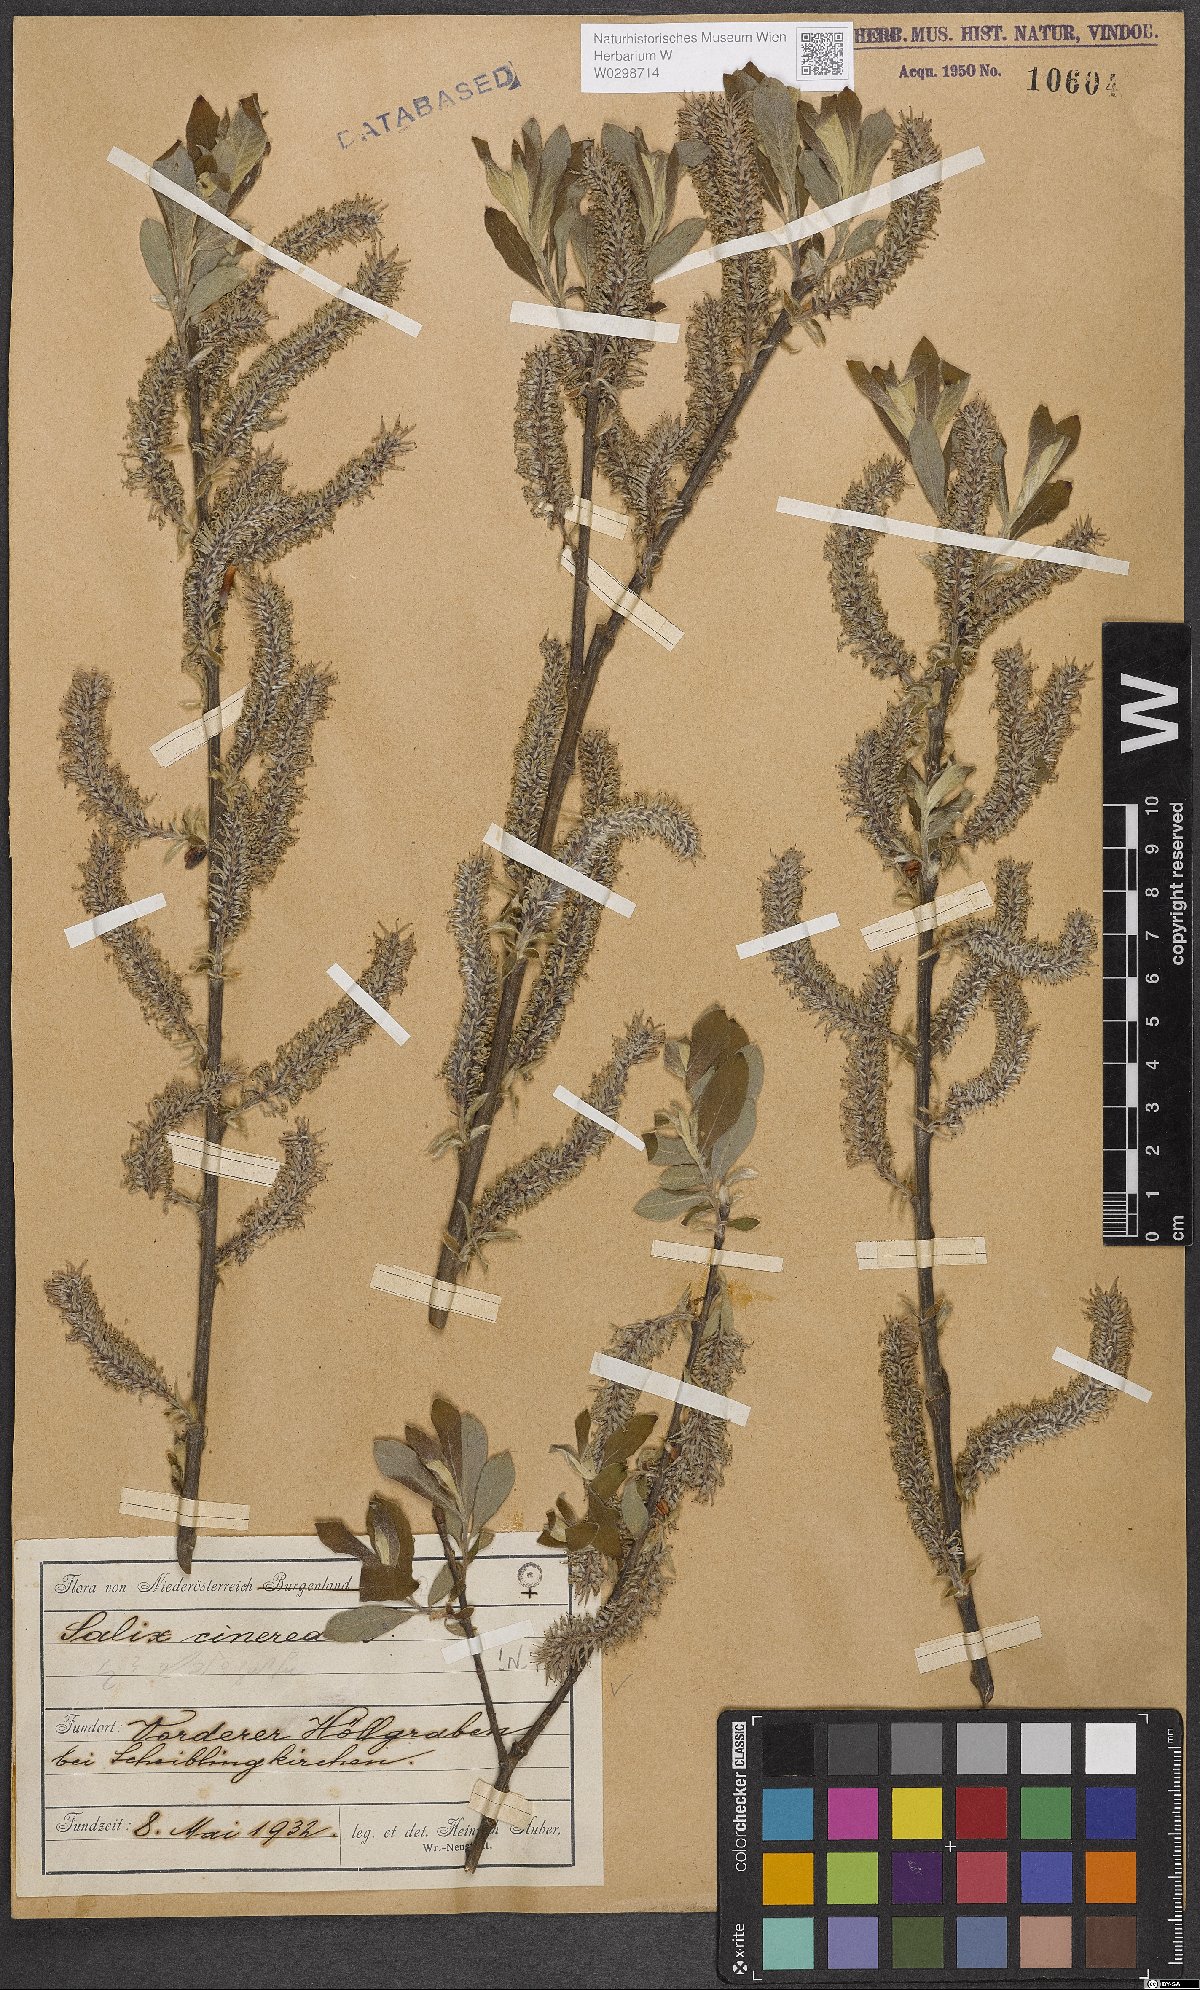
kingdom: Plantae
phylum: Tracheophyta
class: Magnoliopsida
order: Malpighiales
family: Salicaceae
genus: Salix
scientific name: Salix cinerea
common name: Common sallow
